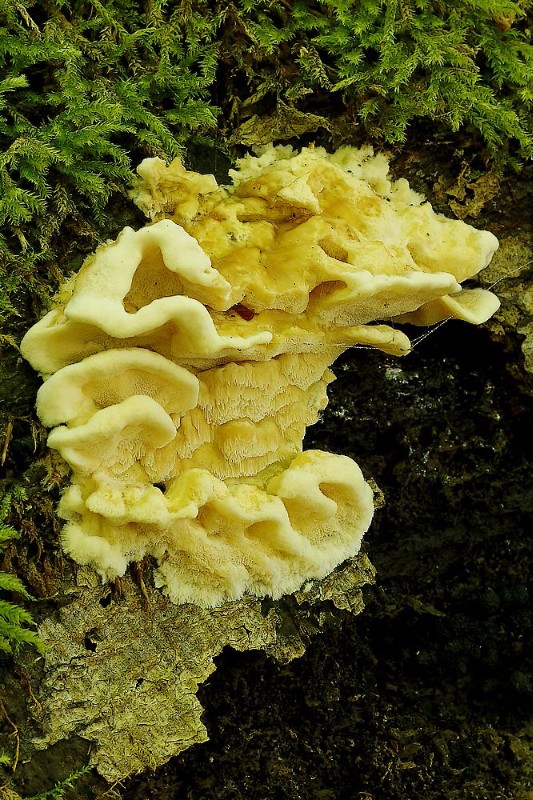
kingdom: Fungi
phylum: Basidiomycota
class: Agaricomycetes
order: Polyporales
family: Steccherinaceae
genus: Antrodiella
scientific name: Antrodiella mentschulensis
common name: abrikosporesvamp
